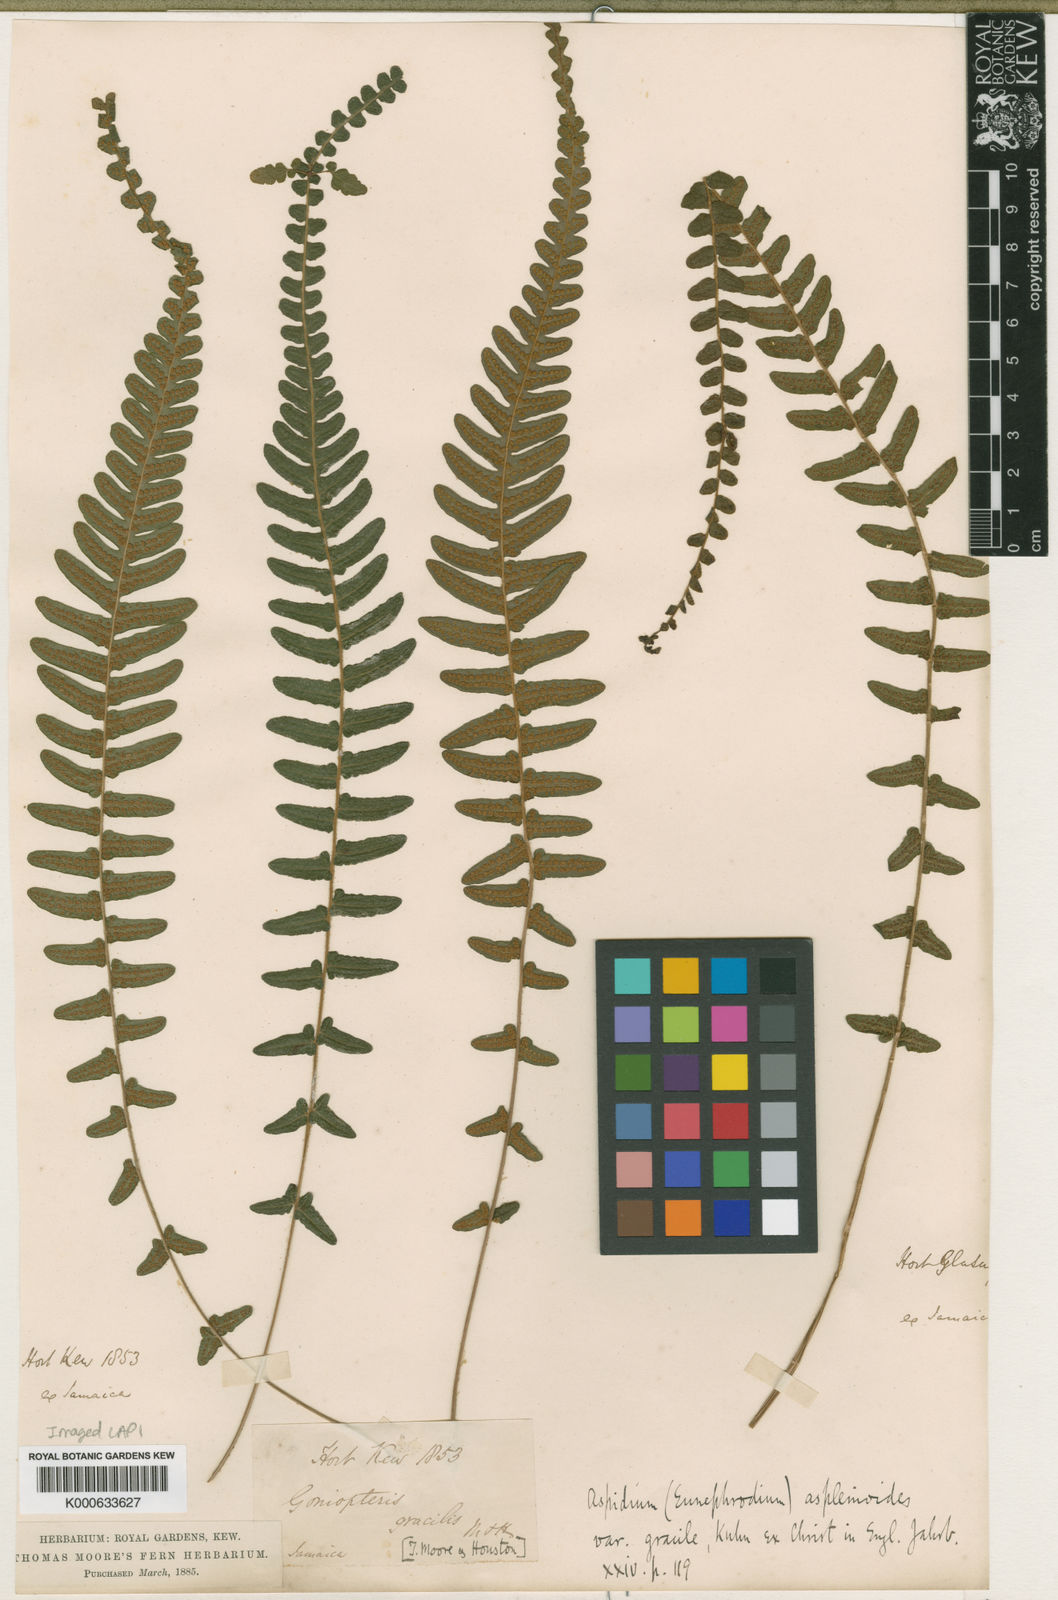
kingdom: Plantae
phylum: Tracheophyta
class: Polypodiopsida
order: Polypodiales
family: Thelypteridaceae
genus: Goniopteris
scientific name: Goniopteris reptans
